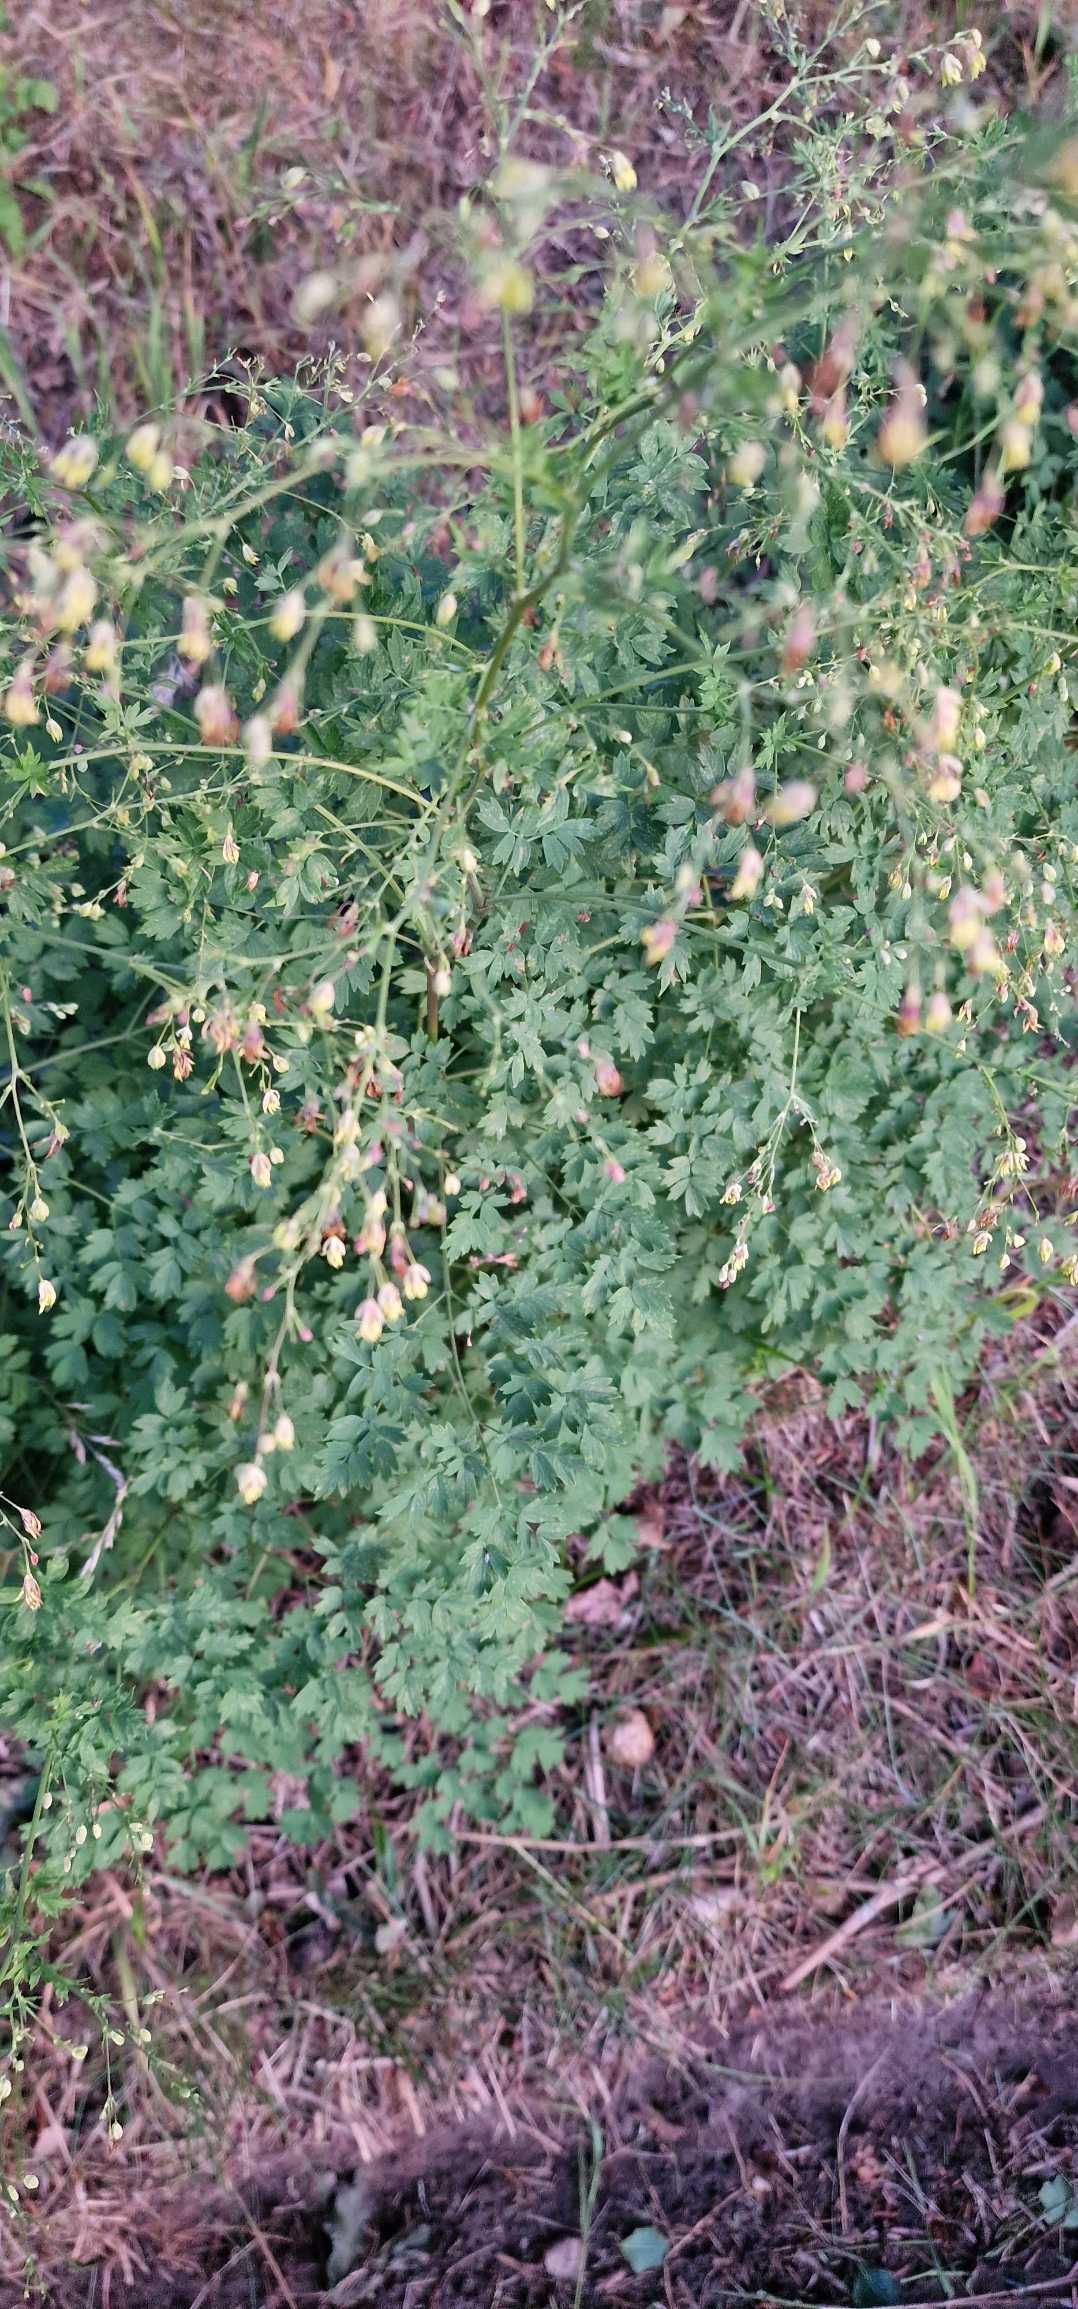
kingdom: Plantae
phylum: Tracheophyta
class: Magnoliopsida
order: Ranunculales
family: Ranunculaceae
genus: Thalictrum
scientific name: Thalictrum minus
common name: Liden frøstjerne
